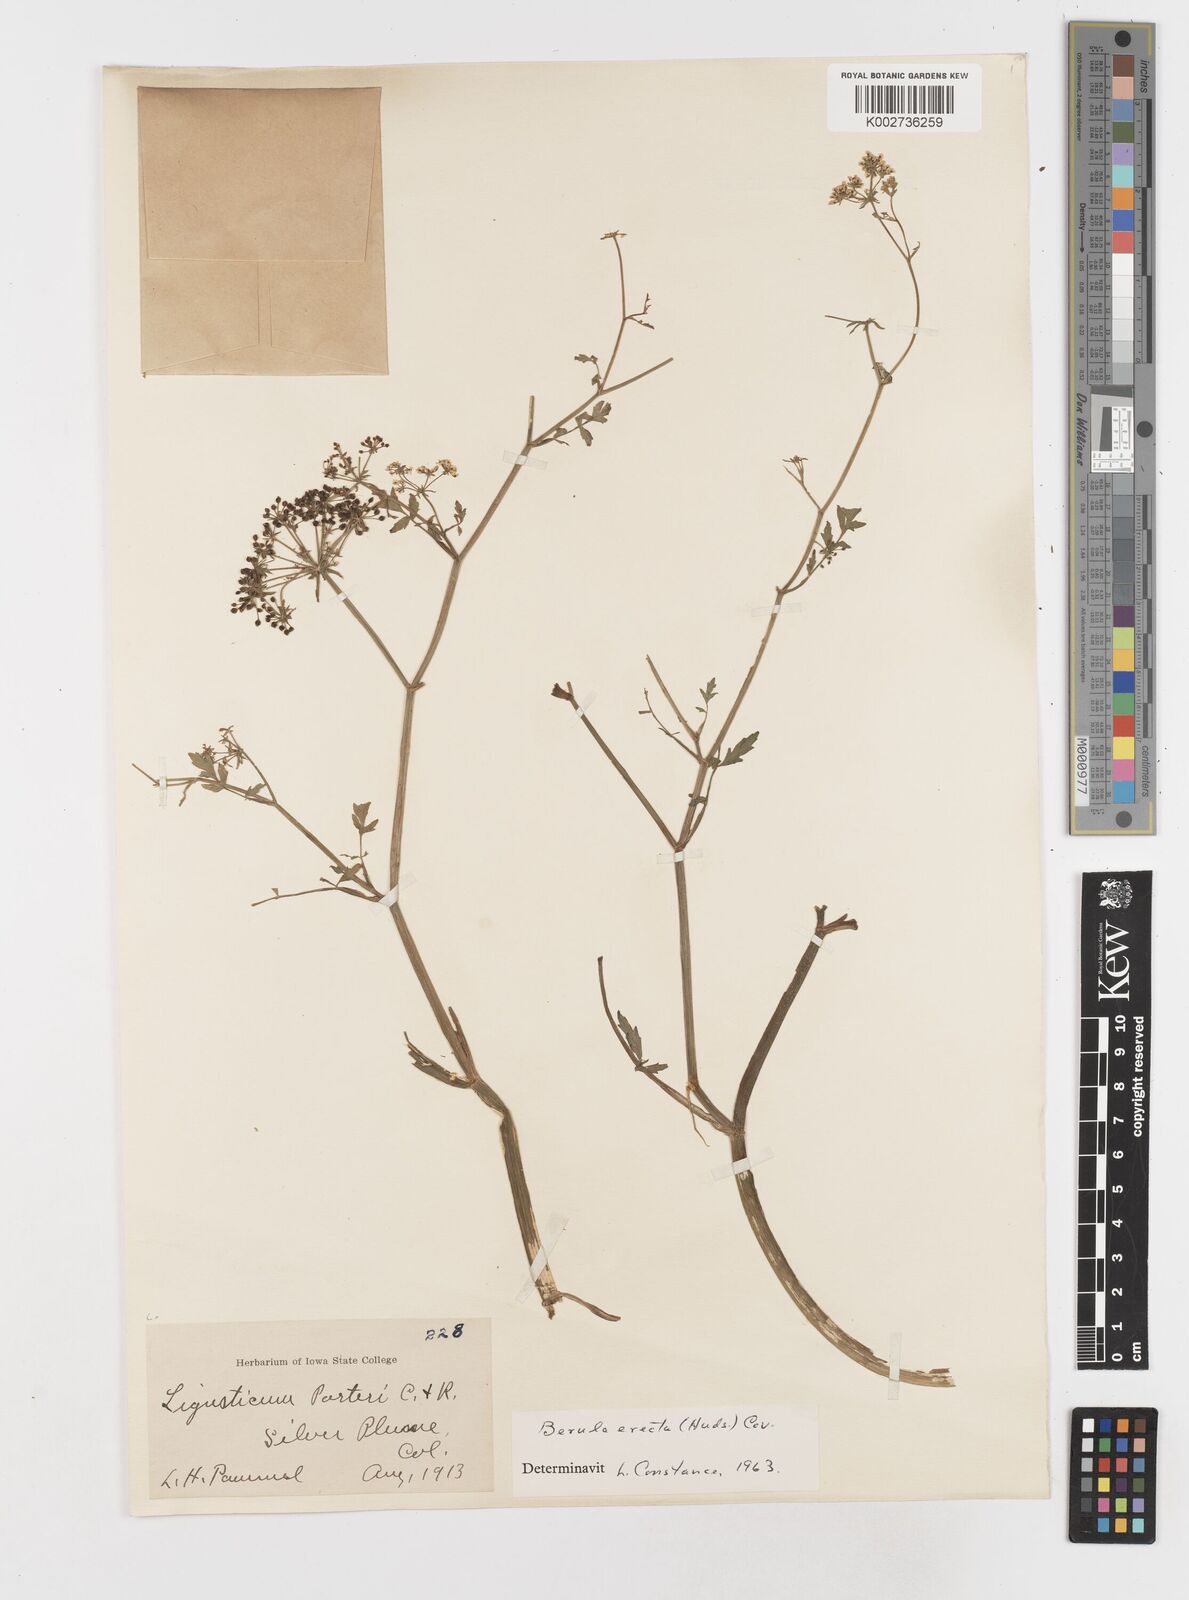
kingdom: Plantae
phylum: Tracheophyta
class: Magnoliopsida
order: Apiales
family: Apiaceae
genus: Berula
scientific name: Berula erecta
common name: Lesser water-parsnip
